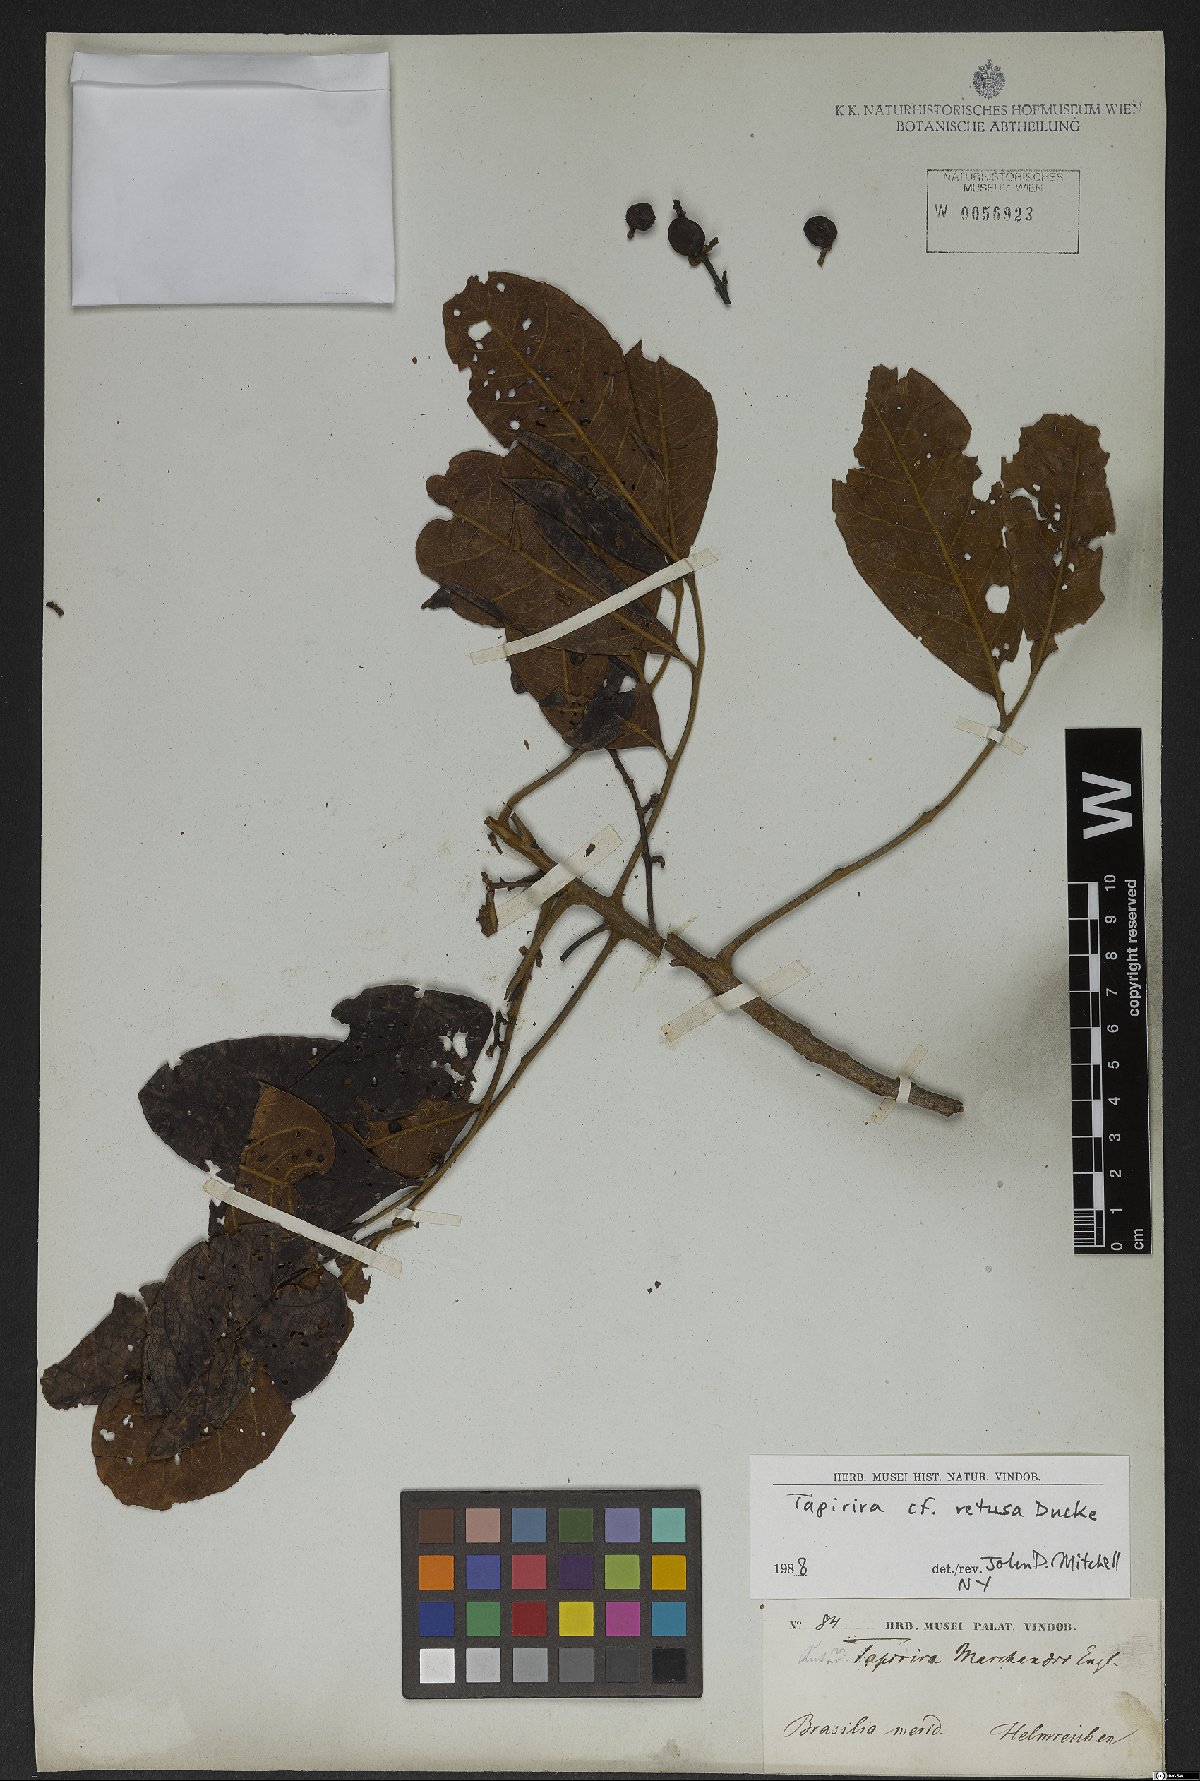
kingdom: Plantae
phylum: Tracheophyta
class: Magnoliopsida
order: Sapindales
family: Anacardiaceae
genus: Tapirira
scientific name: Tapirira retusa
